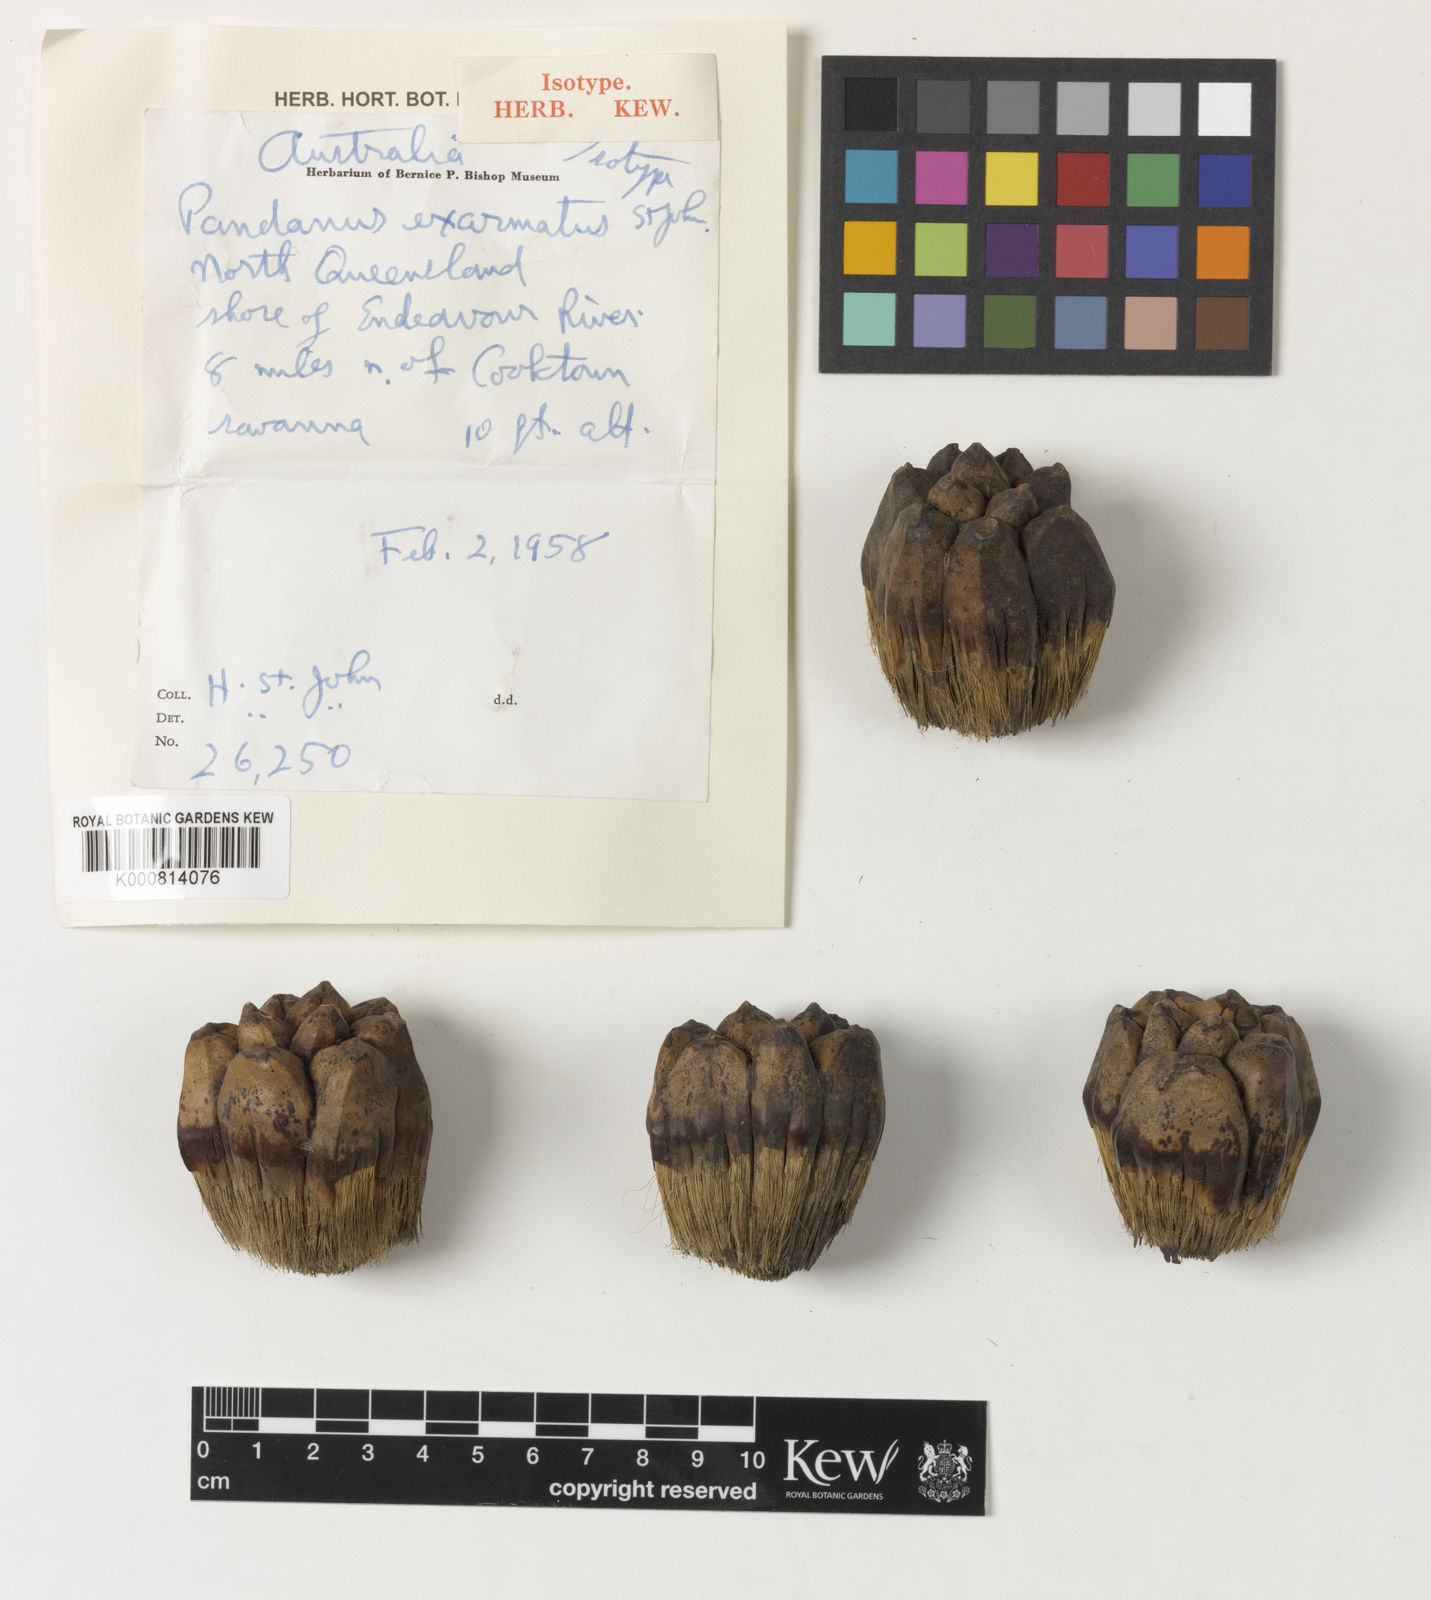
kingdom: Plantae
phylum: Tracheophyta
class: Liliopsida
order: Pandanales
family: Pandanaceae
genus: Pandanus
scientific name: Pandanus cookii
